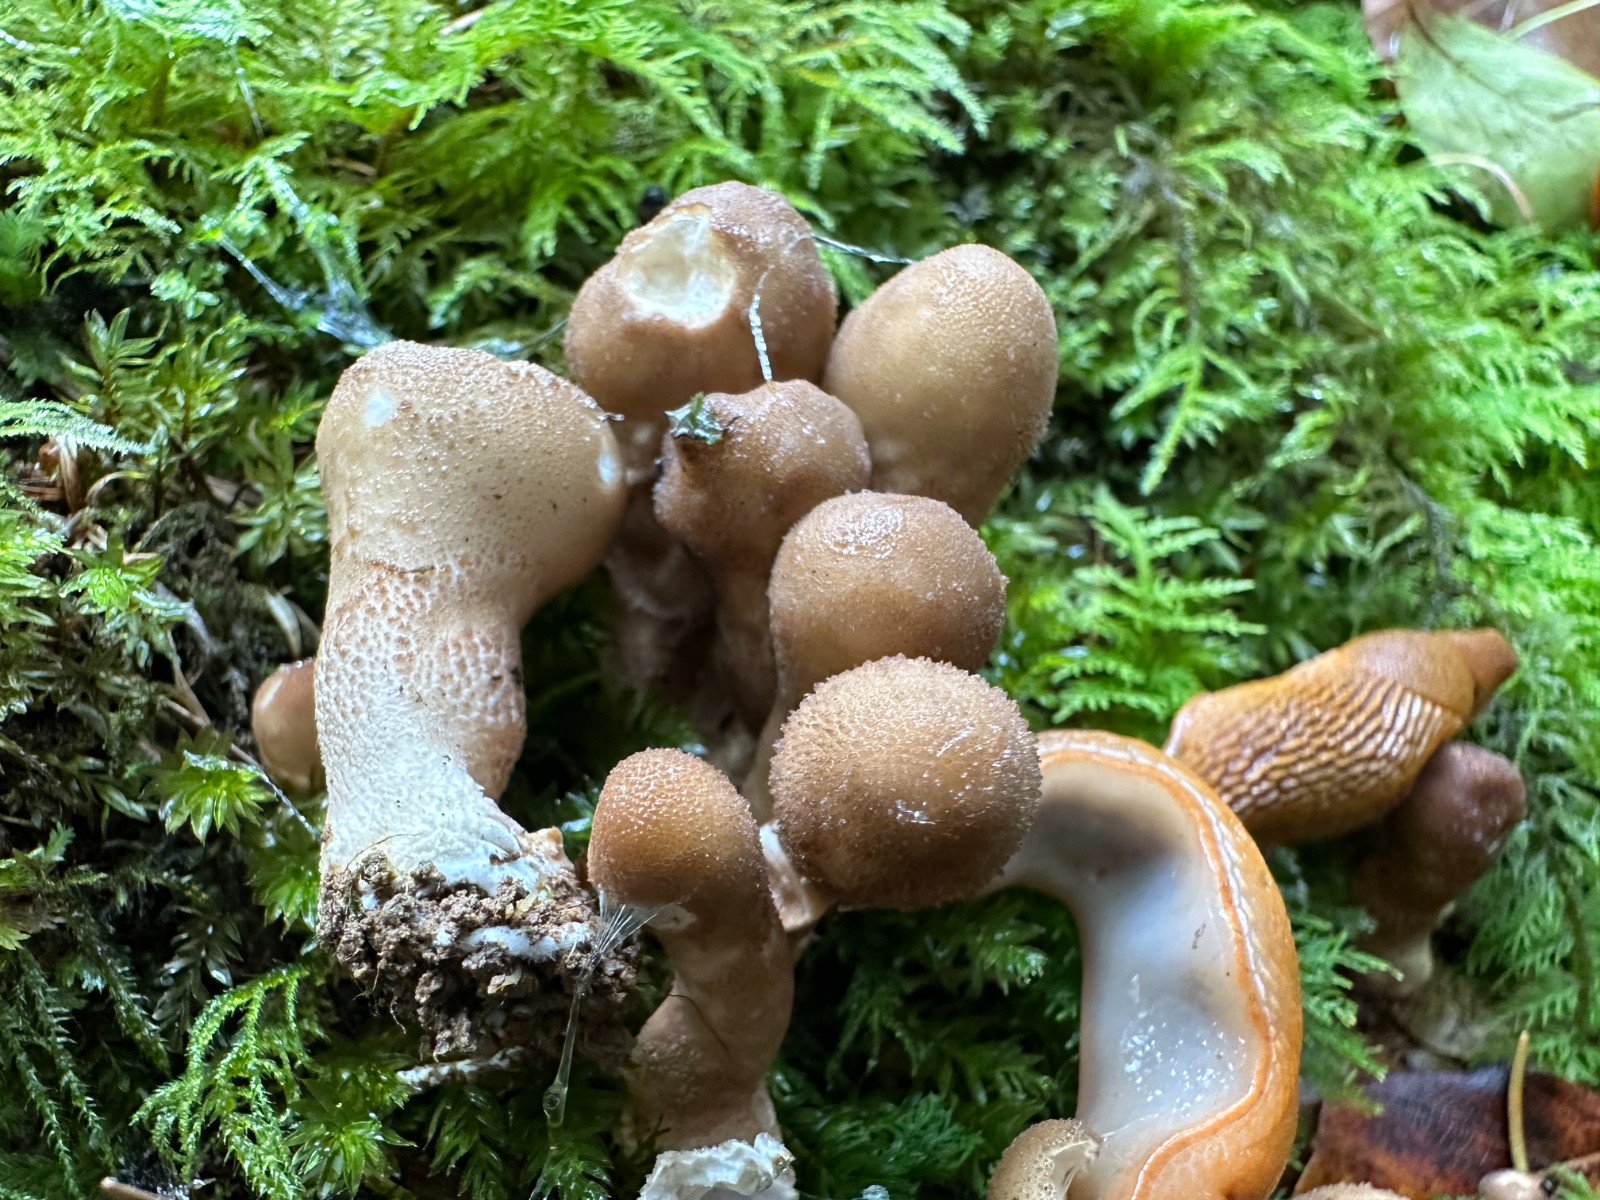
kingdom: Fungi
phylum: Basidiomycota
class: Agaricomycetes
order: Agaricales
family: Lycoperdaceae
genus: Apioperdon
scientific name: Apioperdon pyriforme
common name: pære-støvbold
